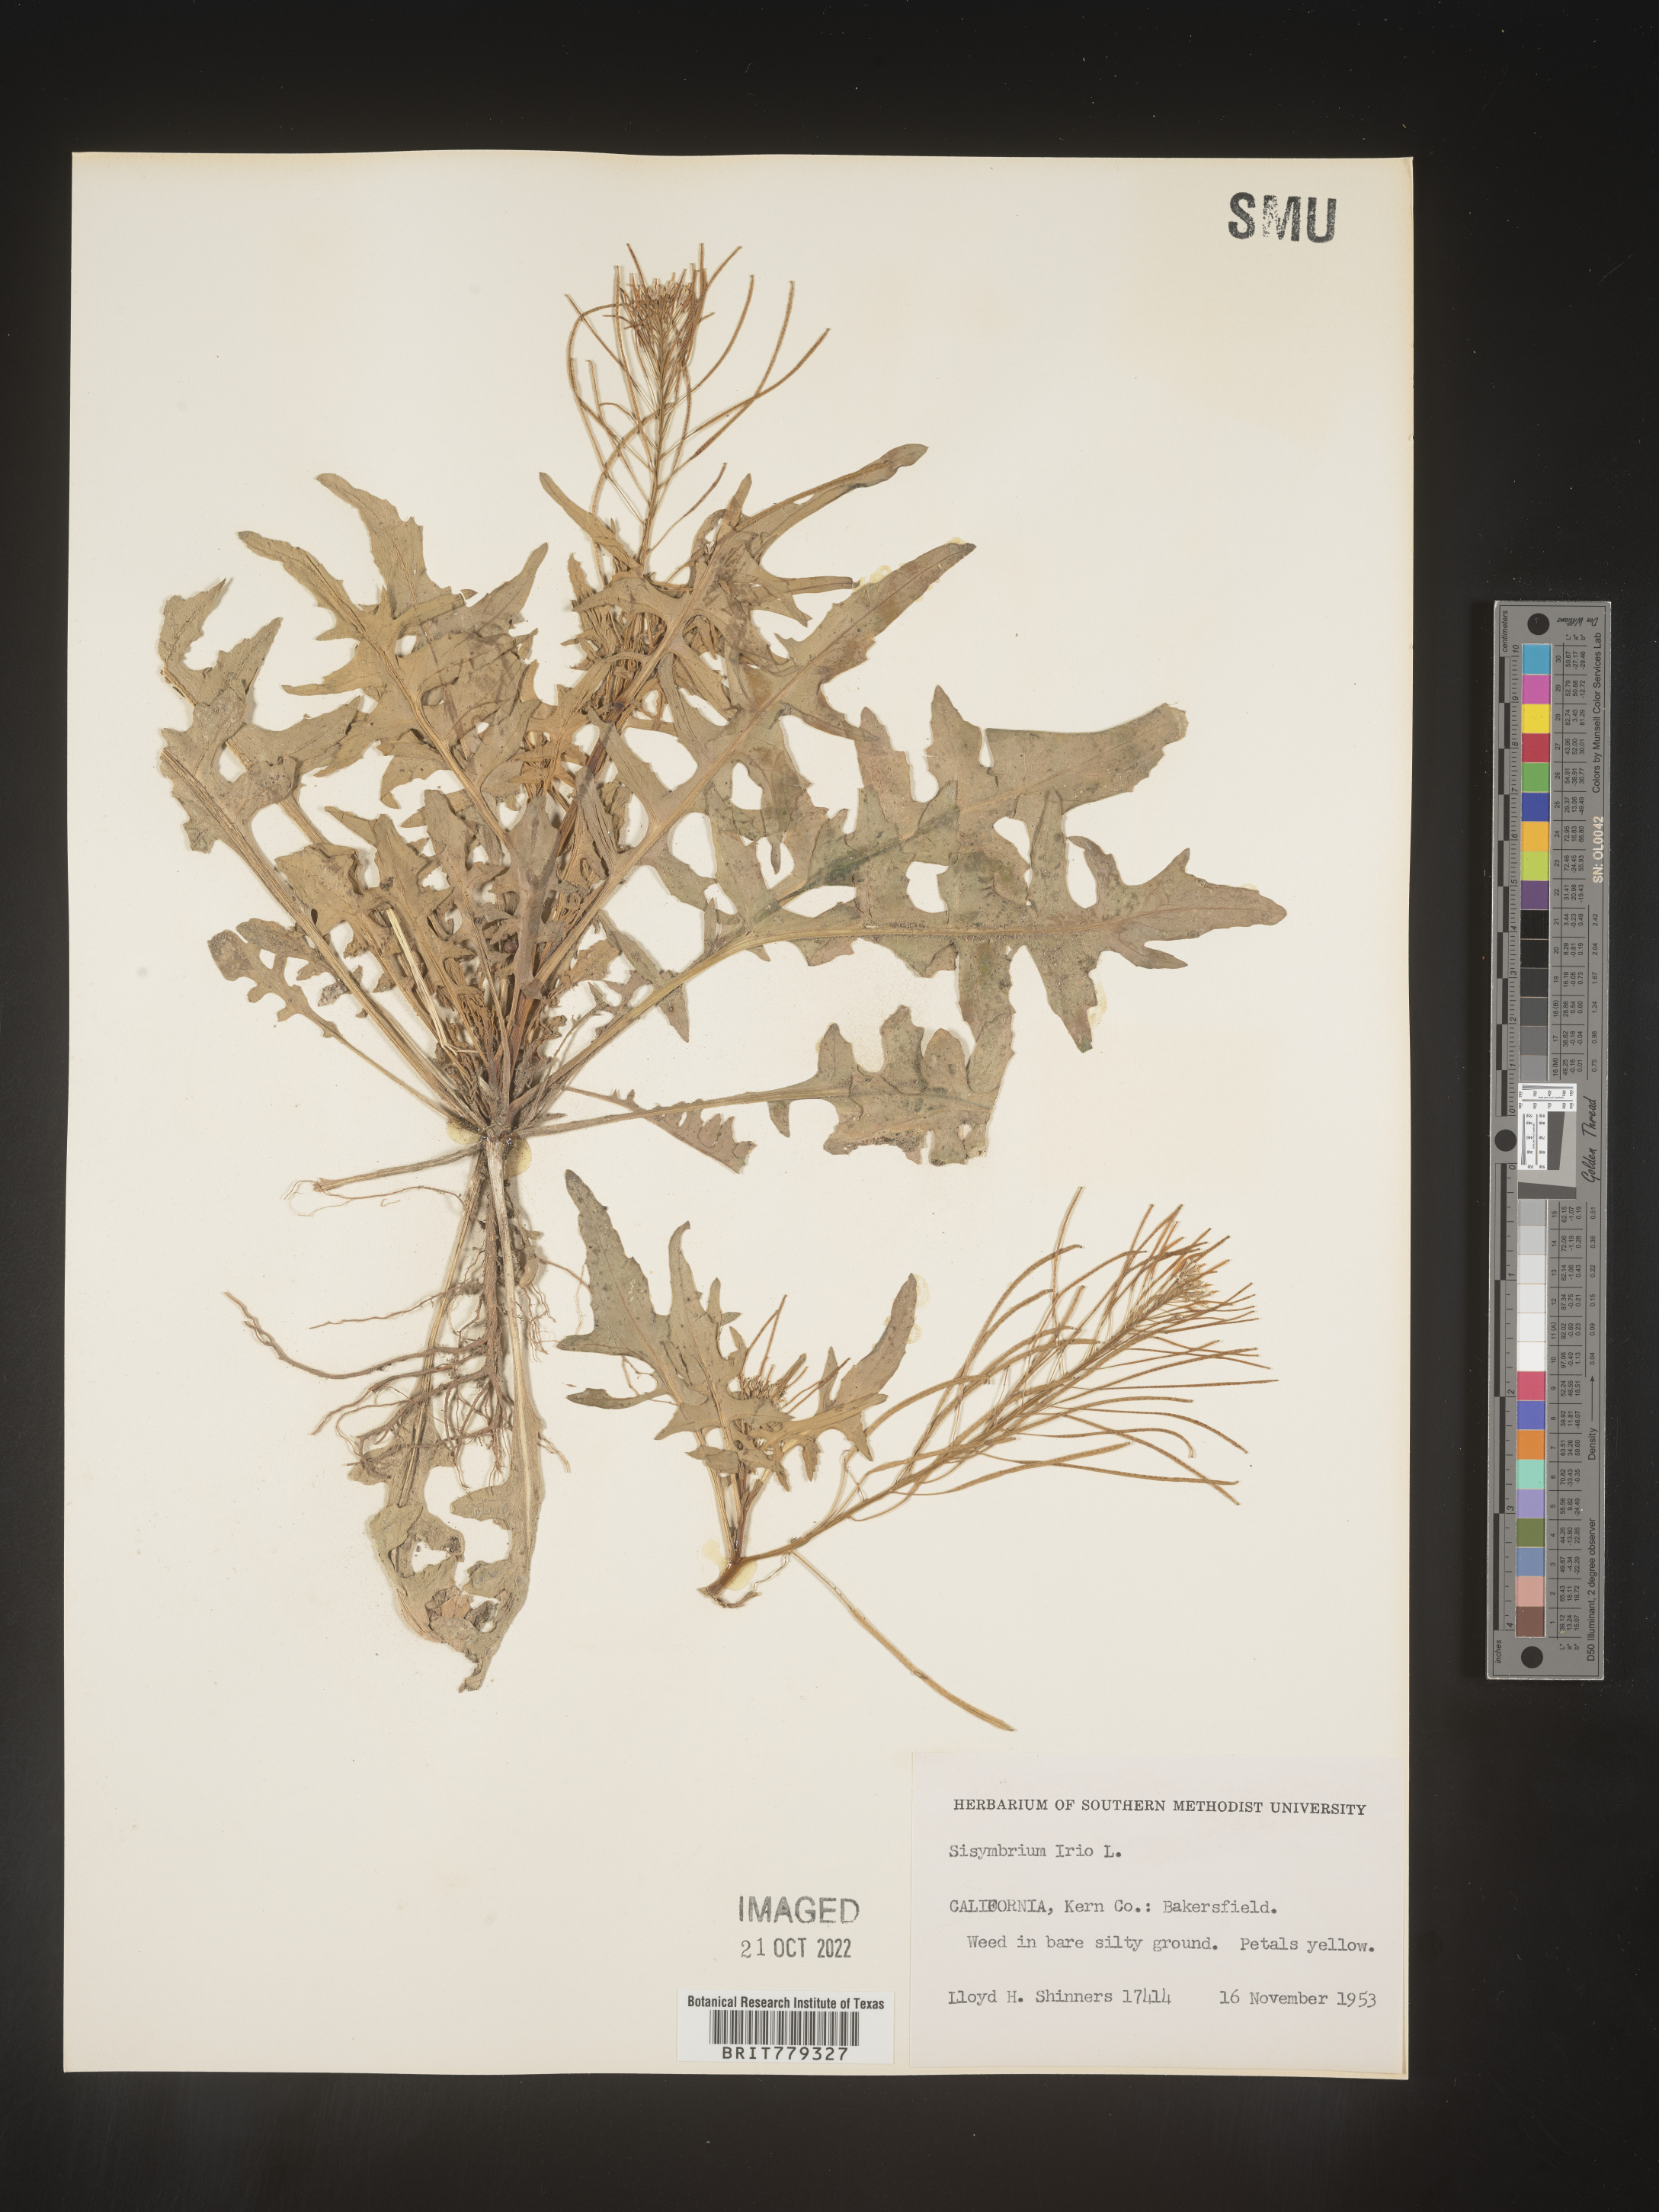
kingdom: Plantae
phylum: Tracheophyta
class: Magnoliopsida
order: Brassicales
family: Brassicaceae
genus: Sisymbrium
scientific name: Sisymbrium
